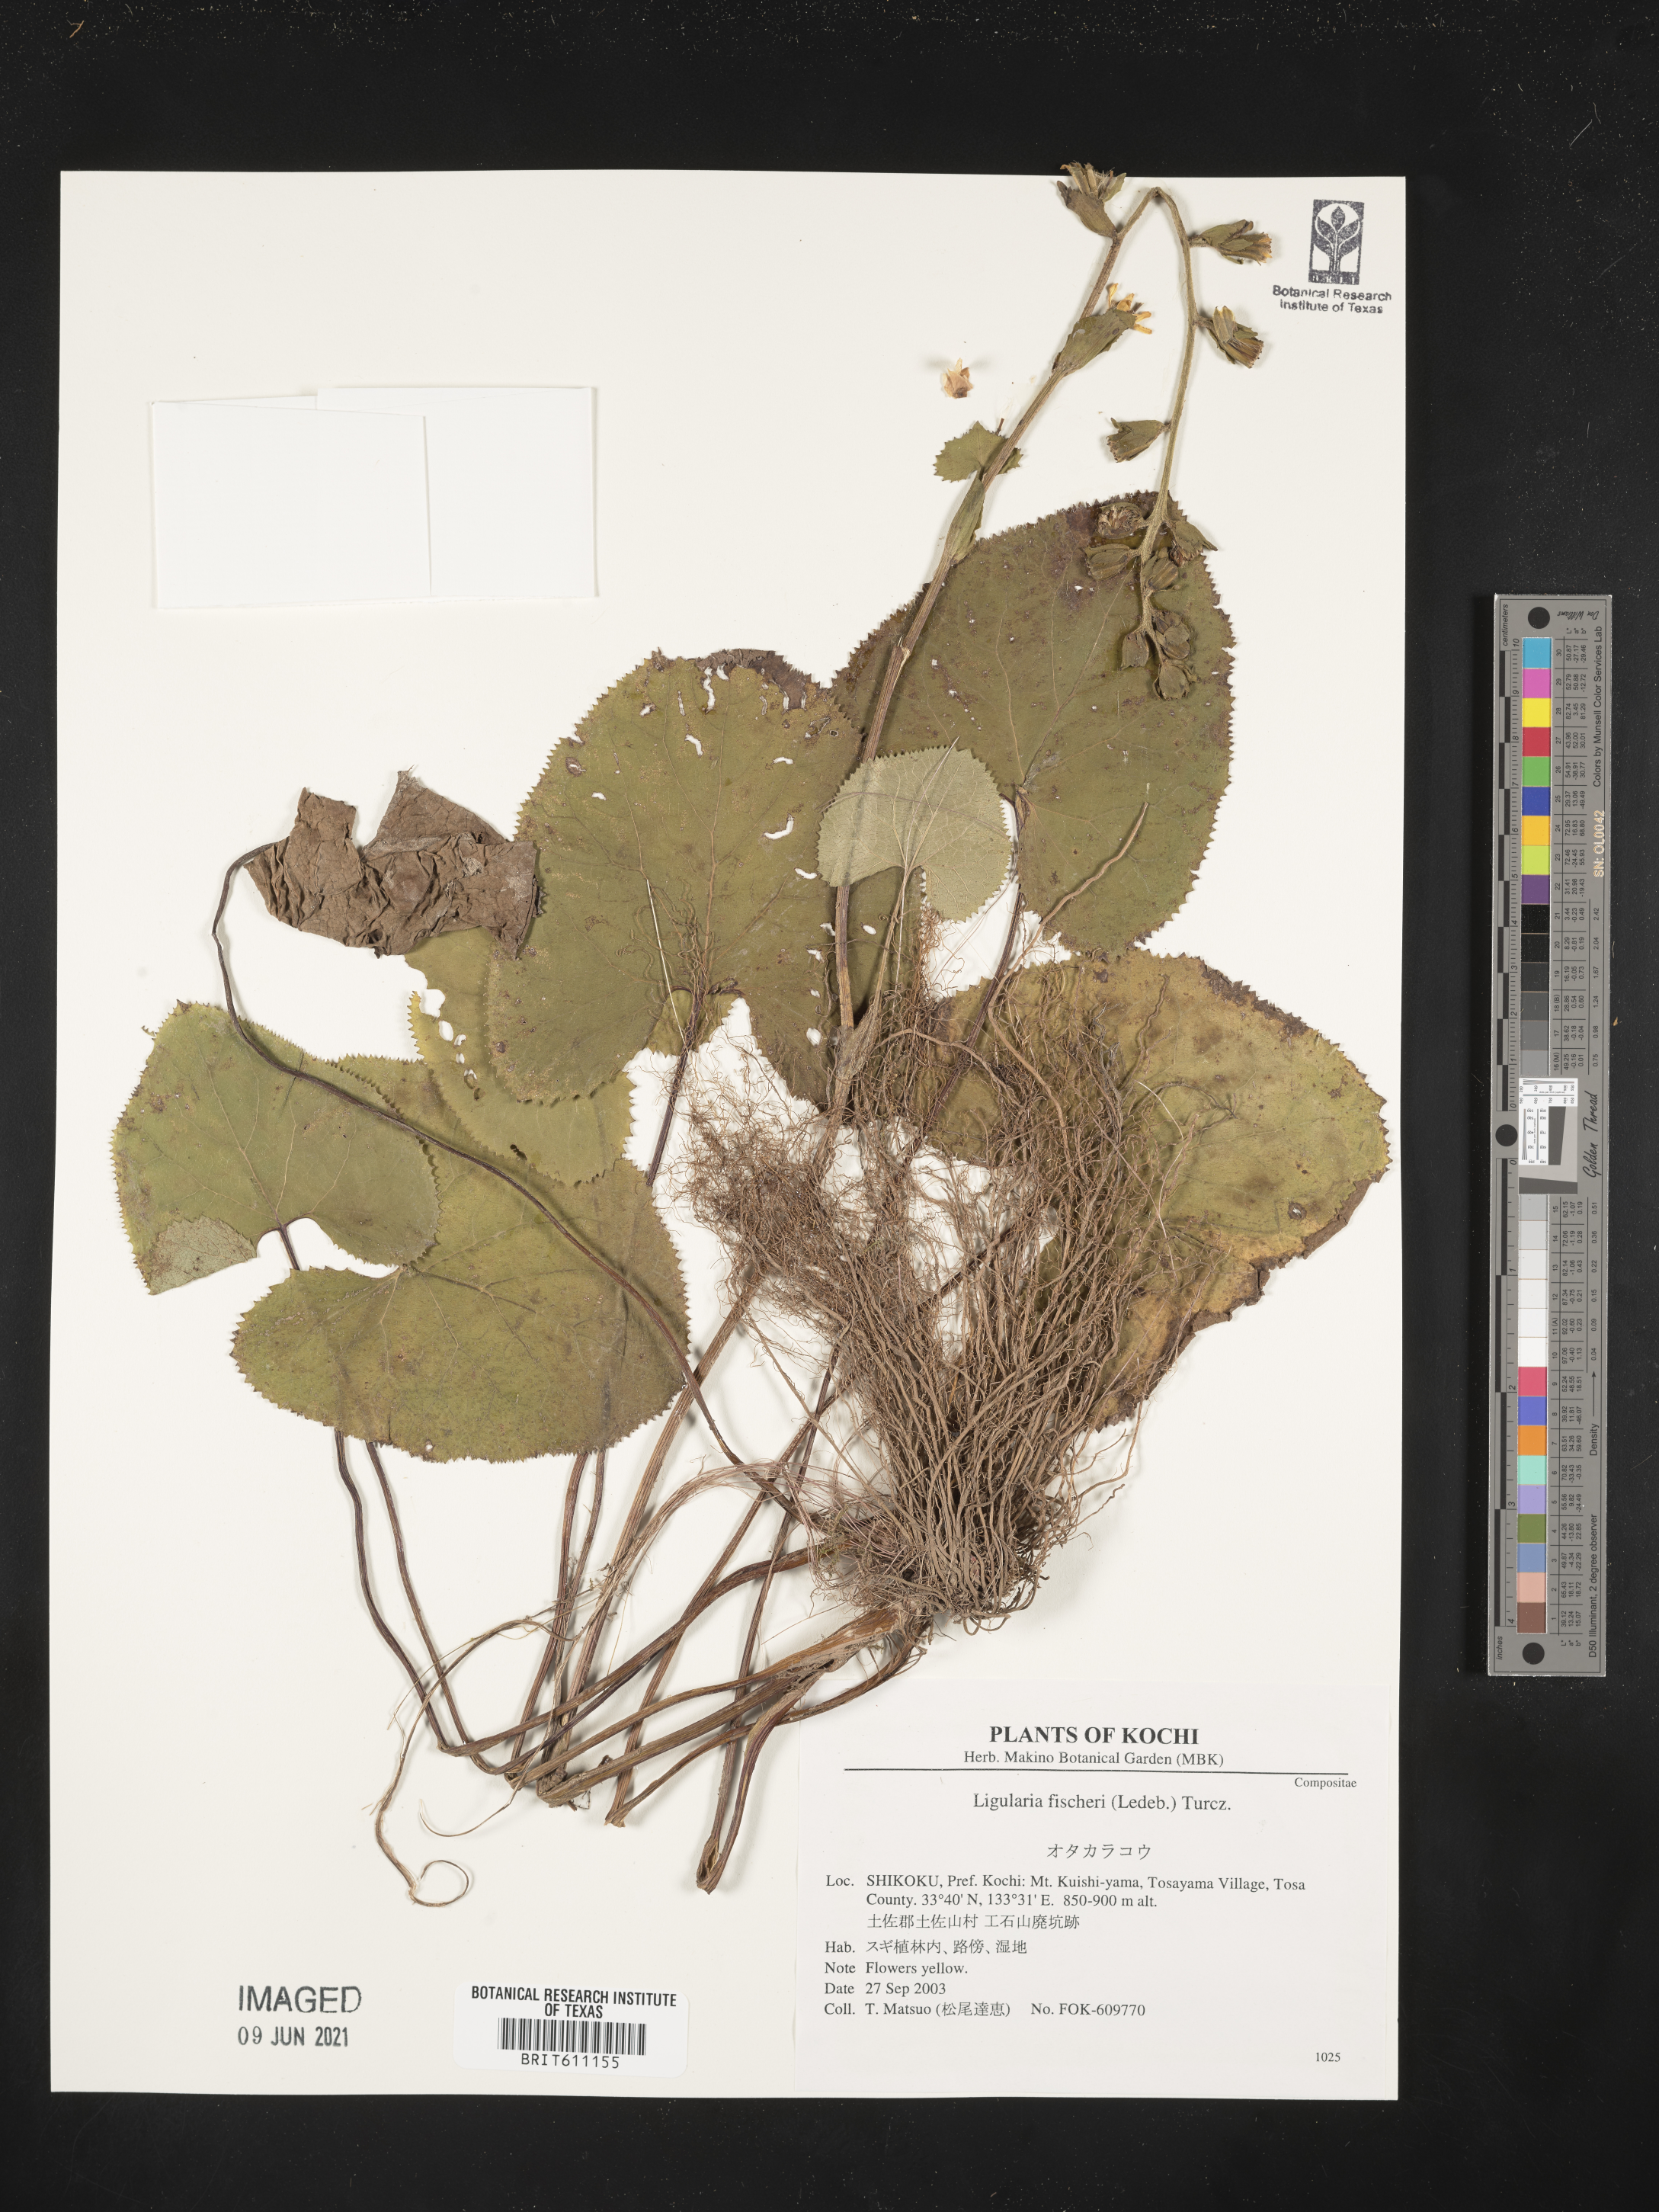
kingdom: Plantae
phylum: Tracheophyta
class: Magnoliopsida
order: Asterales
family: Asteraceae
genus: Ligularia
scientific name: Ligularia fischeri
